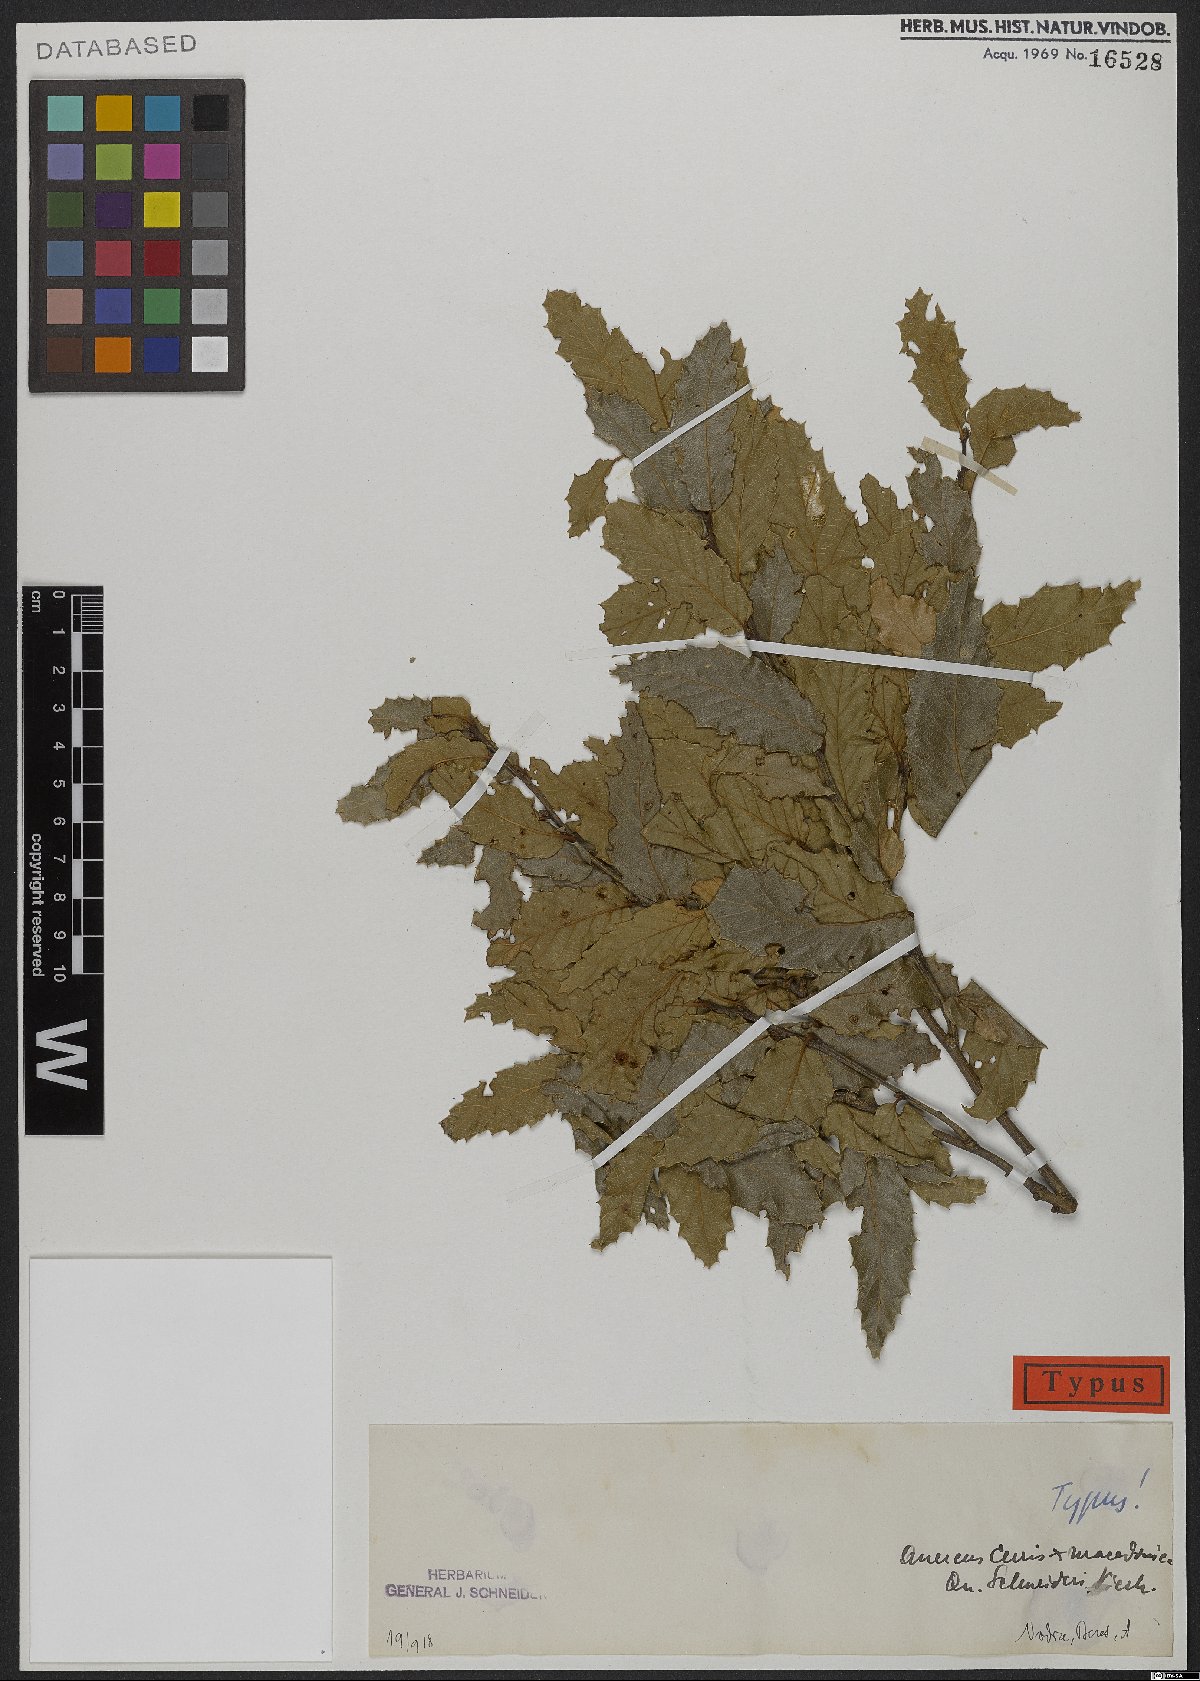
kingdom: Plantae
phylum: Tracheophyta
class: Magnoliopsida
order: Fagales
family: Fagaceae
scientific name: Fagaceae
